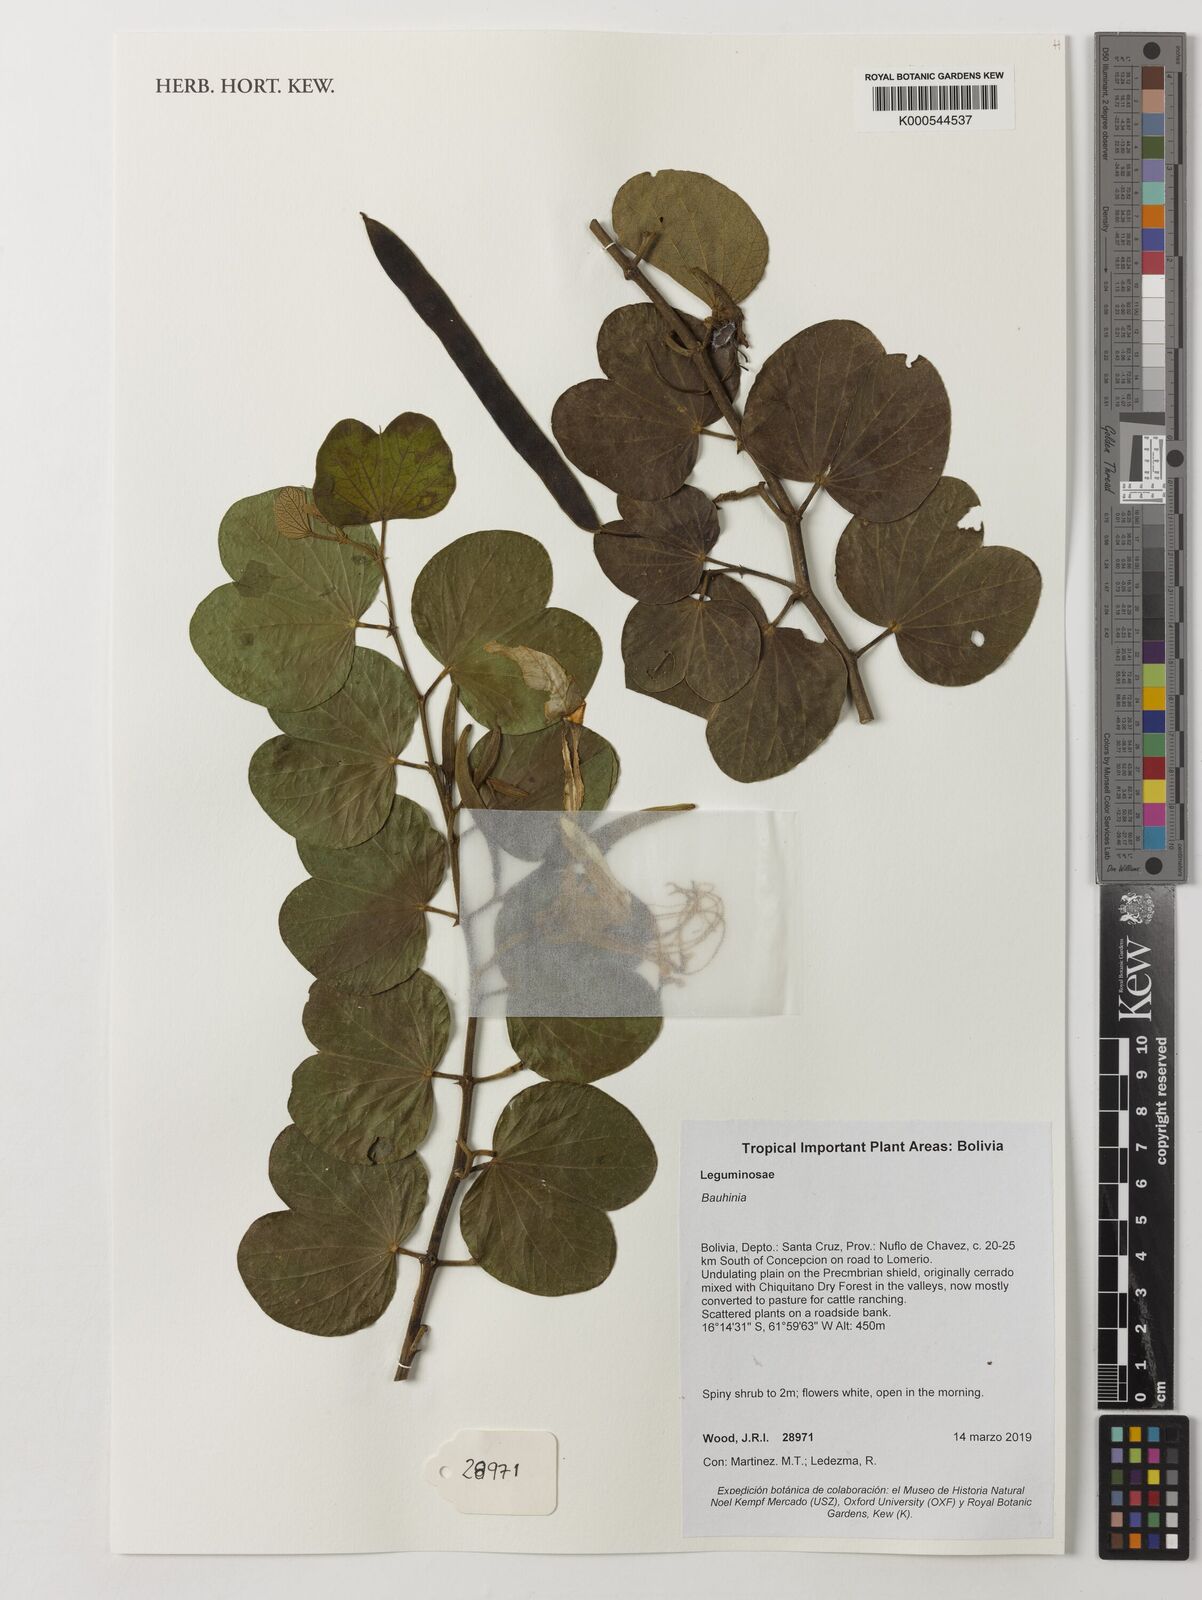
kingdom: Plantae
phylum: Tracheophyta
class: Magnoliopsida
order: Fabales
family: Fabaceae
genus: Bauhinia
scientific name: Bauhinia
